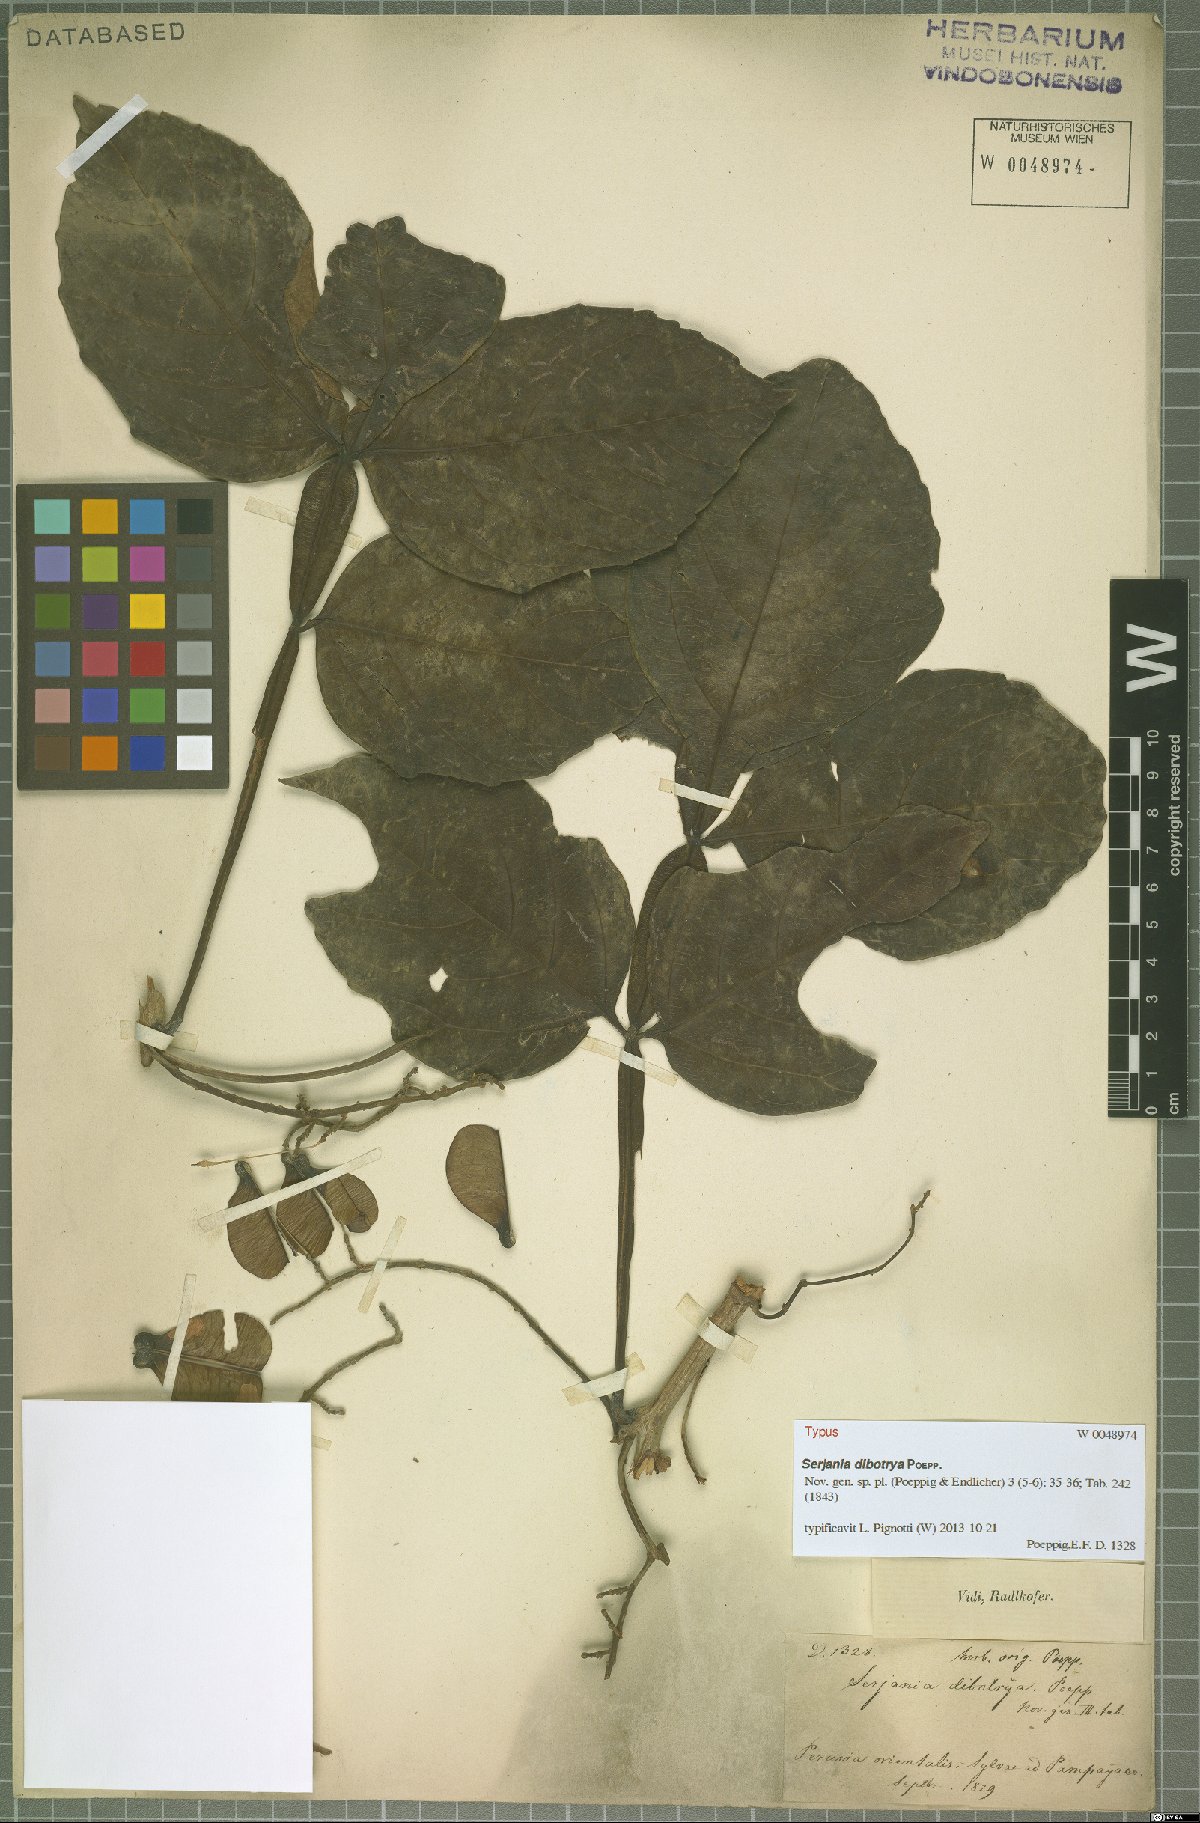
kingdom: Plantae
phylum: Tracheophyta
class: Magnoliopsida
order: Sapindales
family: Sapindaceae
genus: Serjania
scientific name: Serjania dibotrya
